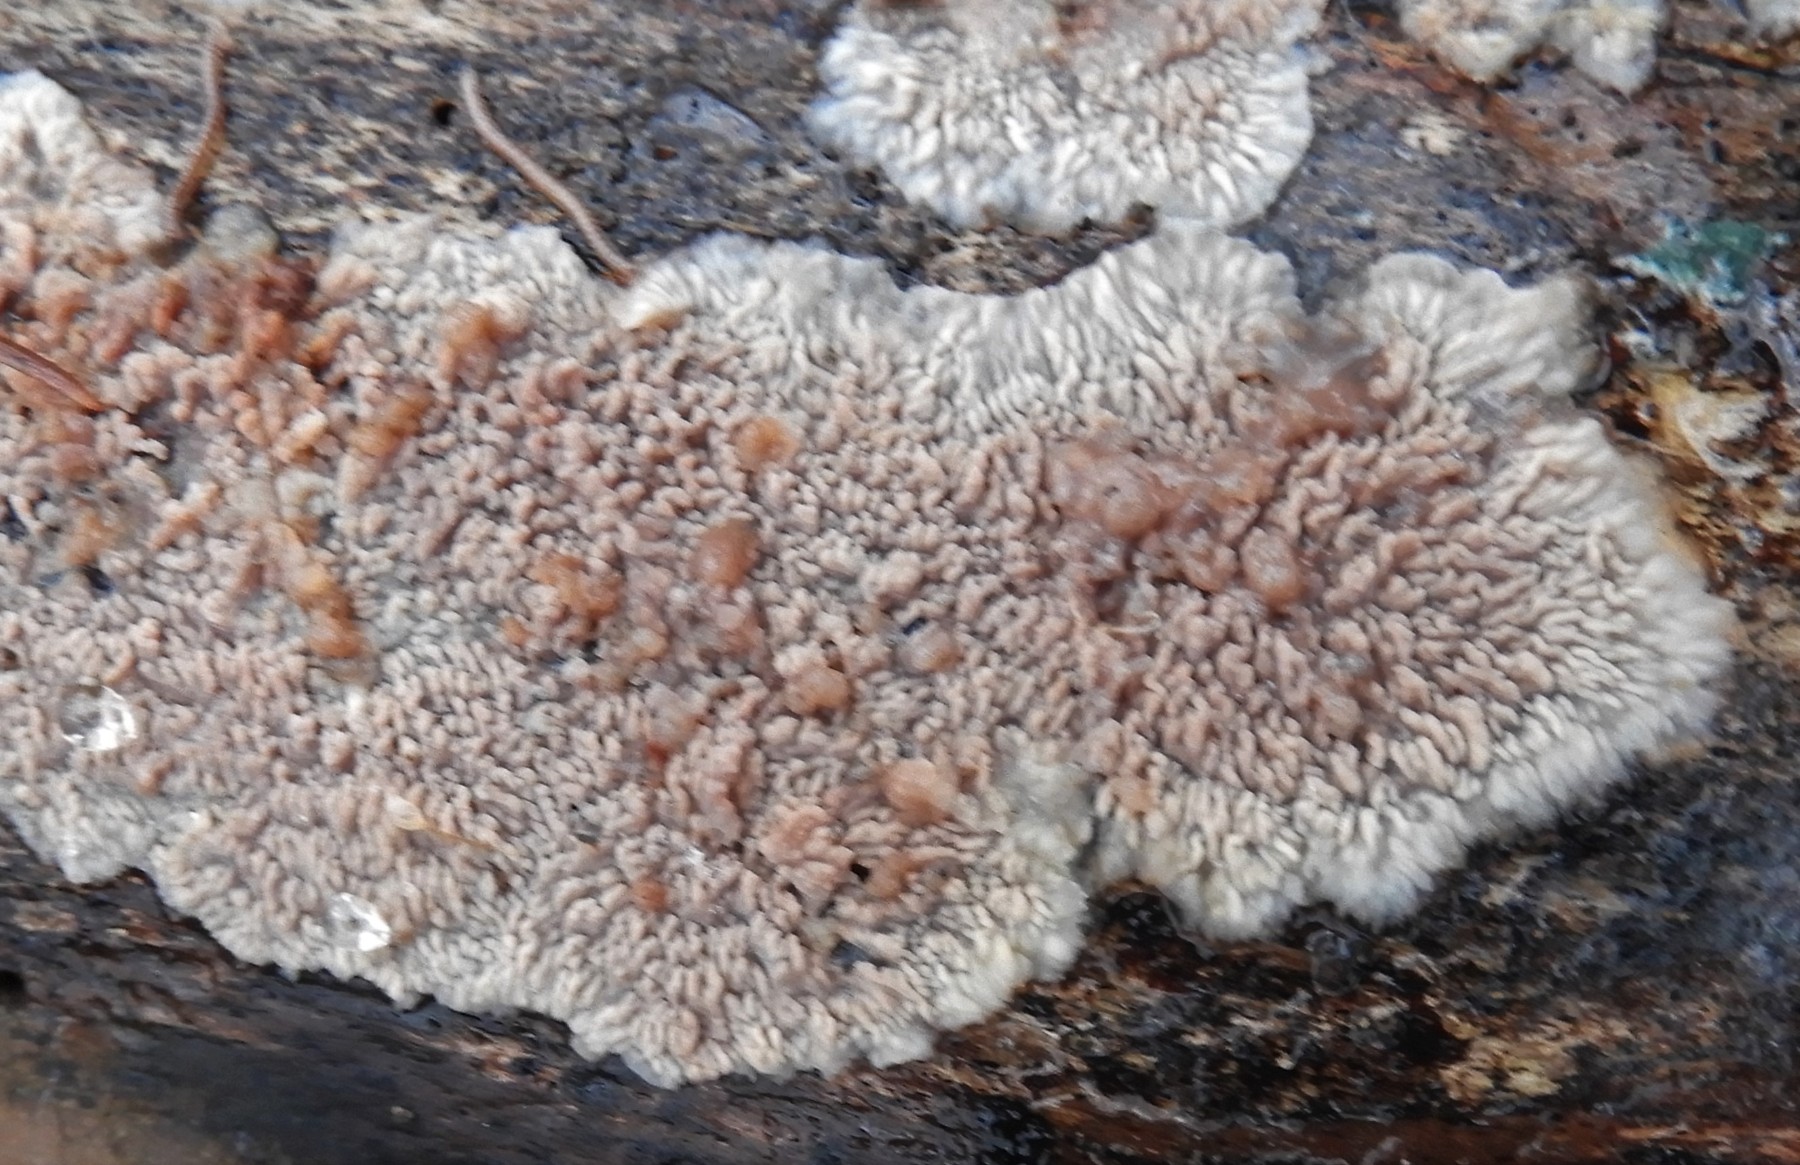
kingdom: Fungi
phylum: Basidiomycota
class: Agaricomycetes
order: Polyporales
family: Meruliaceae
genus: Phlebia
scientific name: Phlebia radiata
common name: stråle-åresvamp
